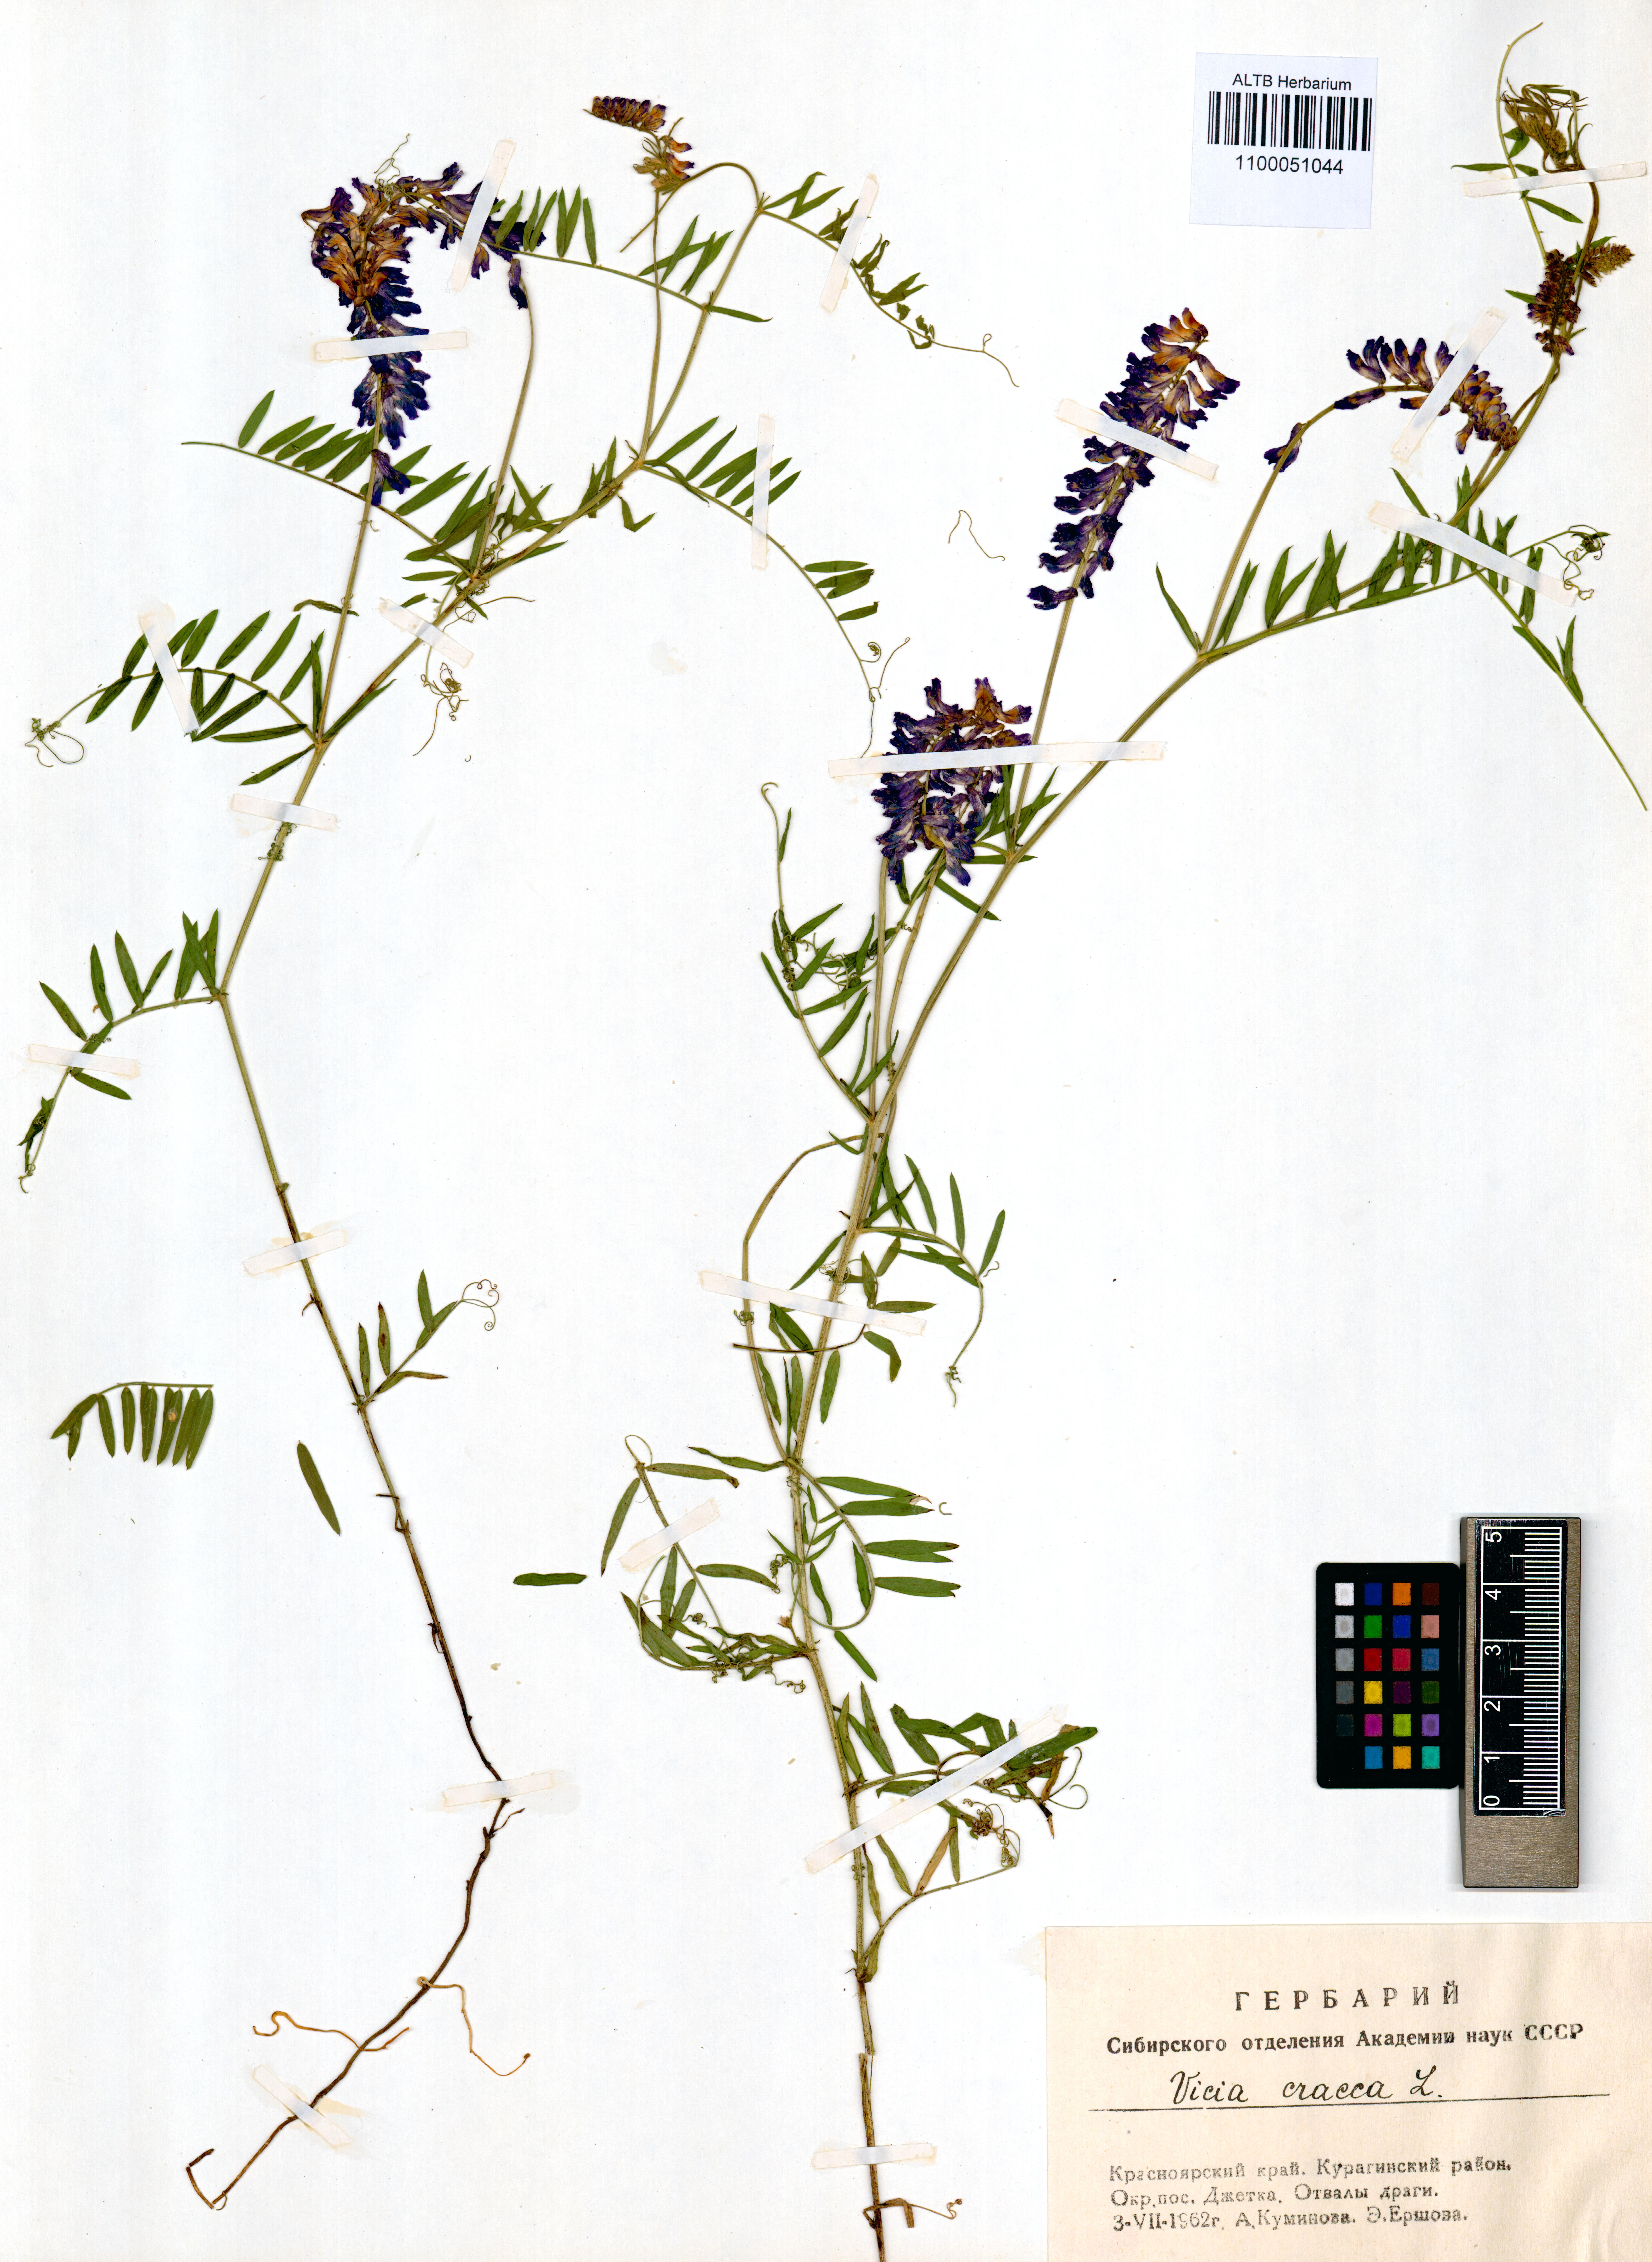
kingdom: Plantae
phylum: Tracheophyta
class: Magnoliopsida
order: Fabales
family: Fabaceae
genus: Vicia
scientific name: Vicia cracca
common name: Bird vetch
